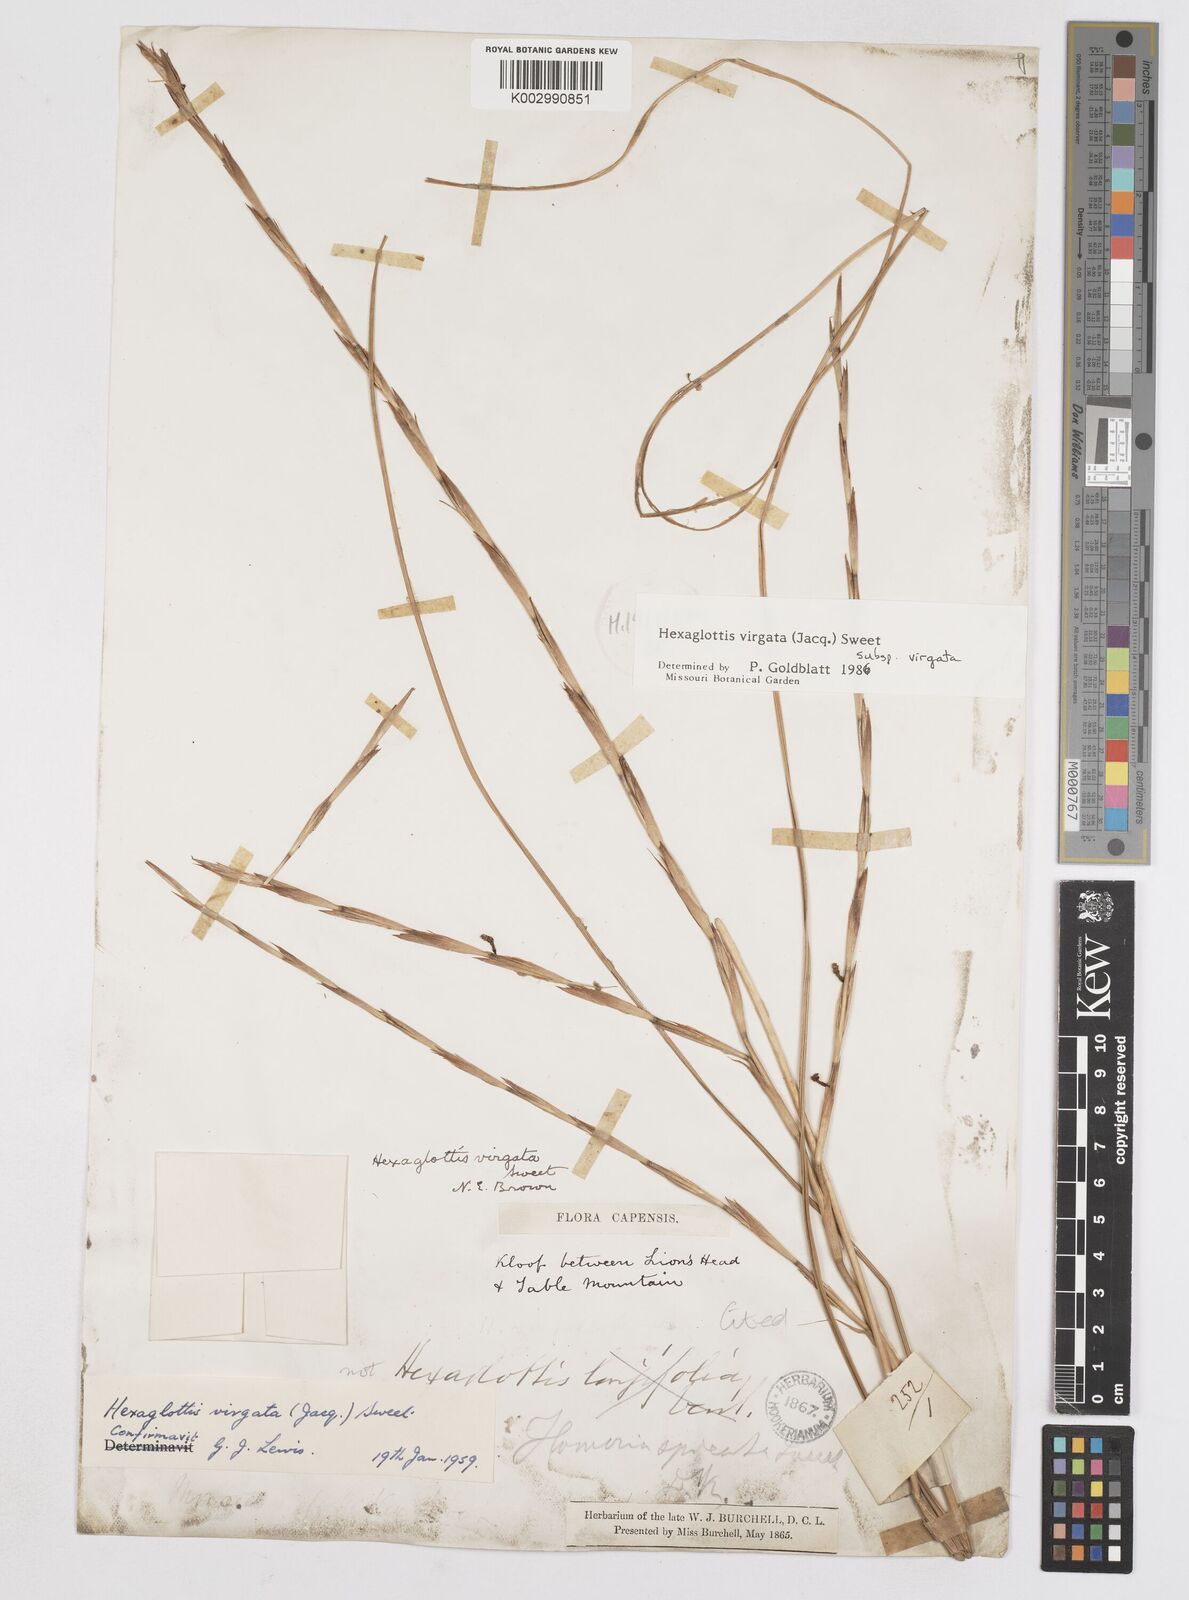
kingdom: Plantae
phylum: Tracheophyta
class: Liliopsida
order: Asparagales
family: Iridaceae
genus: Moraea
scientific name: Moraea virgata
